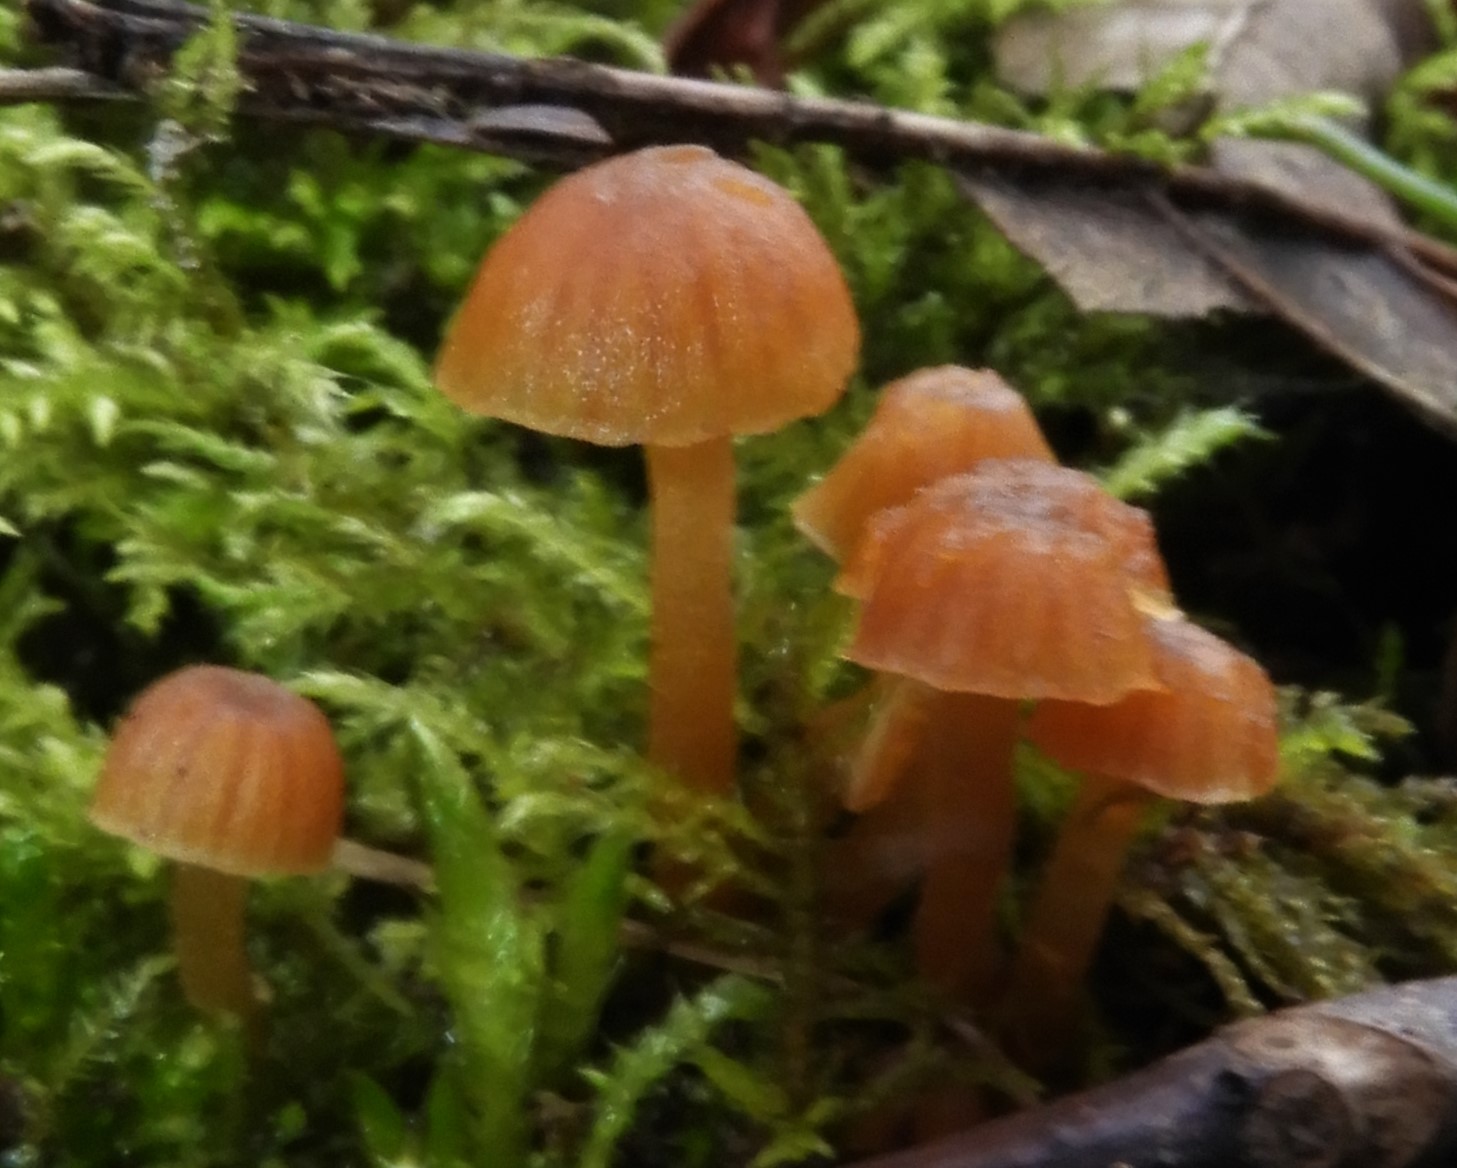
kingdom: Fungi
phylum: Basidiomycota
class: Agaricomycetes
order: Agaricales
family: Hymenogastraceae
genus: Galerina
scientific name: Galerina
